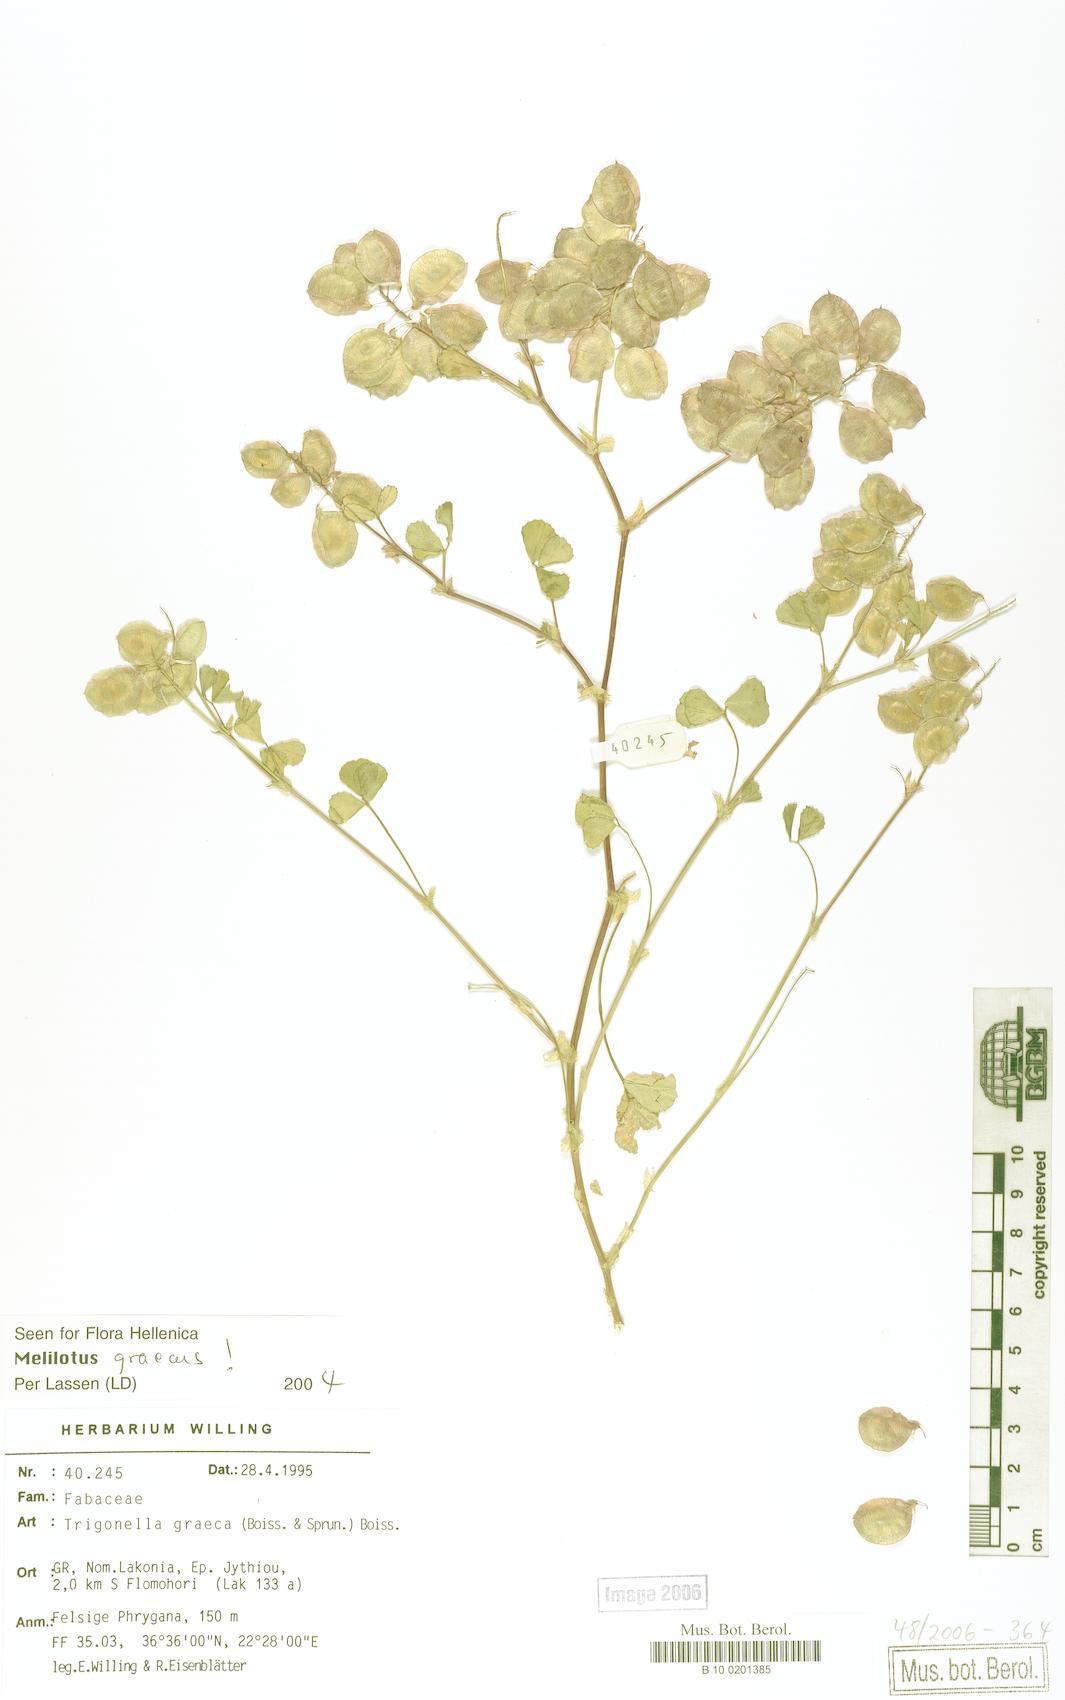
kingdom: Plantae
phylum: Tracheophyta
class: Magnoliopsida
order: Fabales
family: Fabaceae
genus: Trigonella
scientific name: Trigonella graeca
